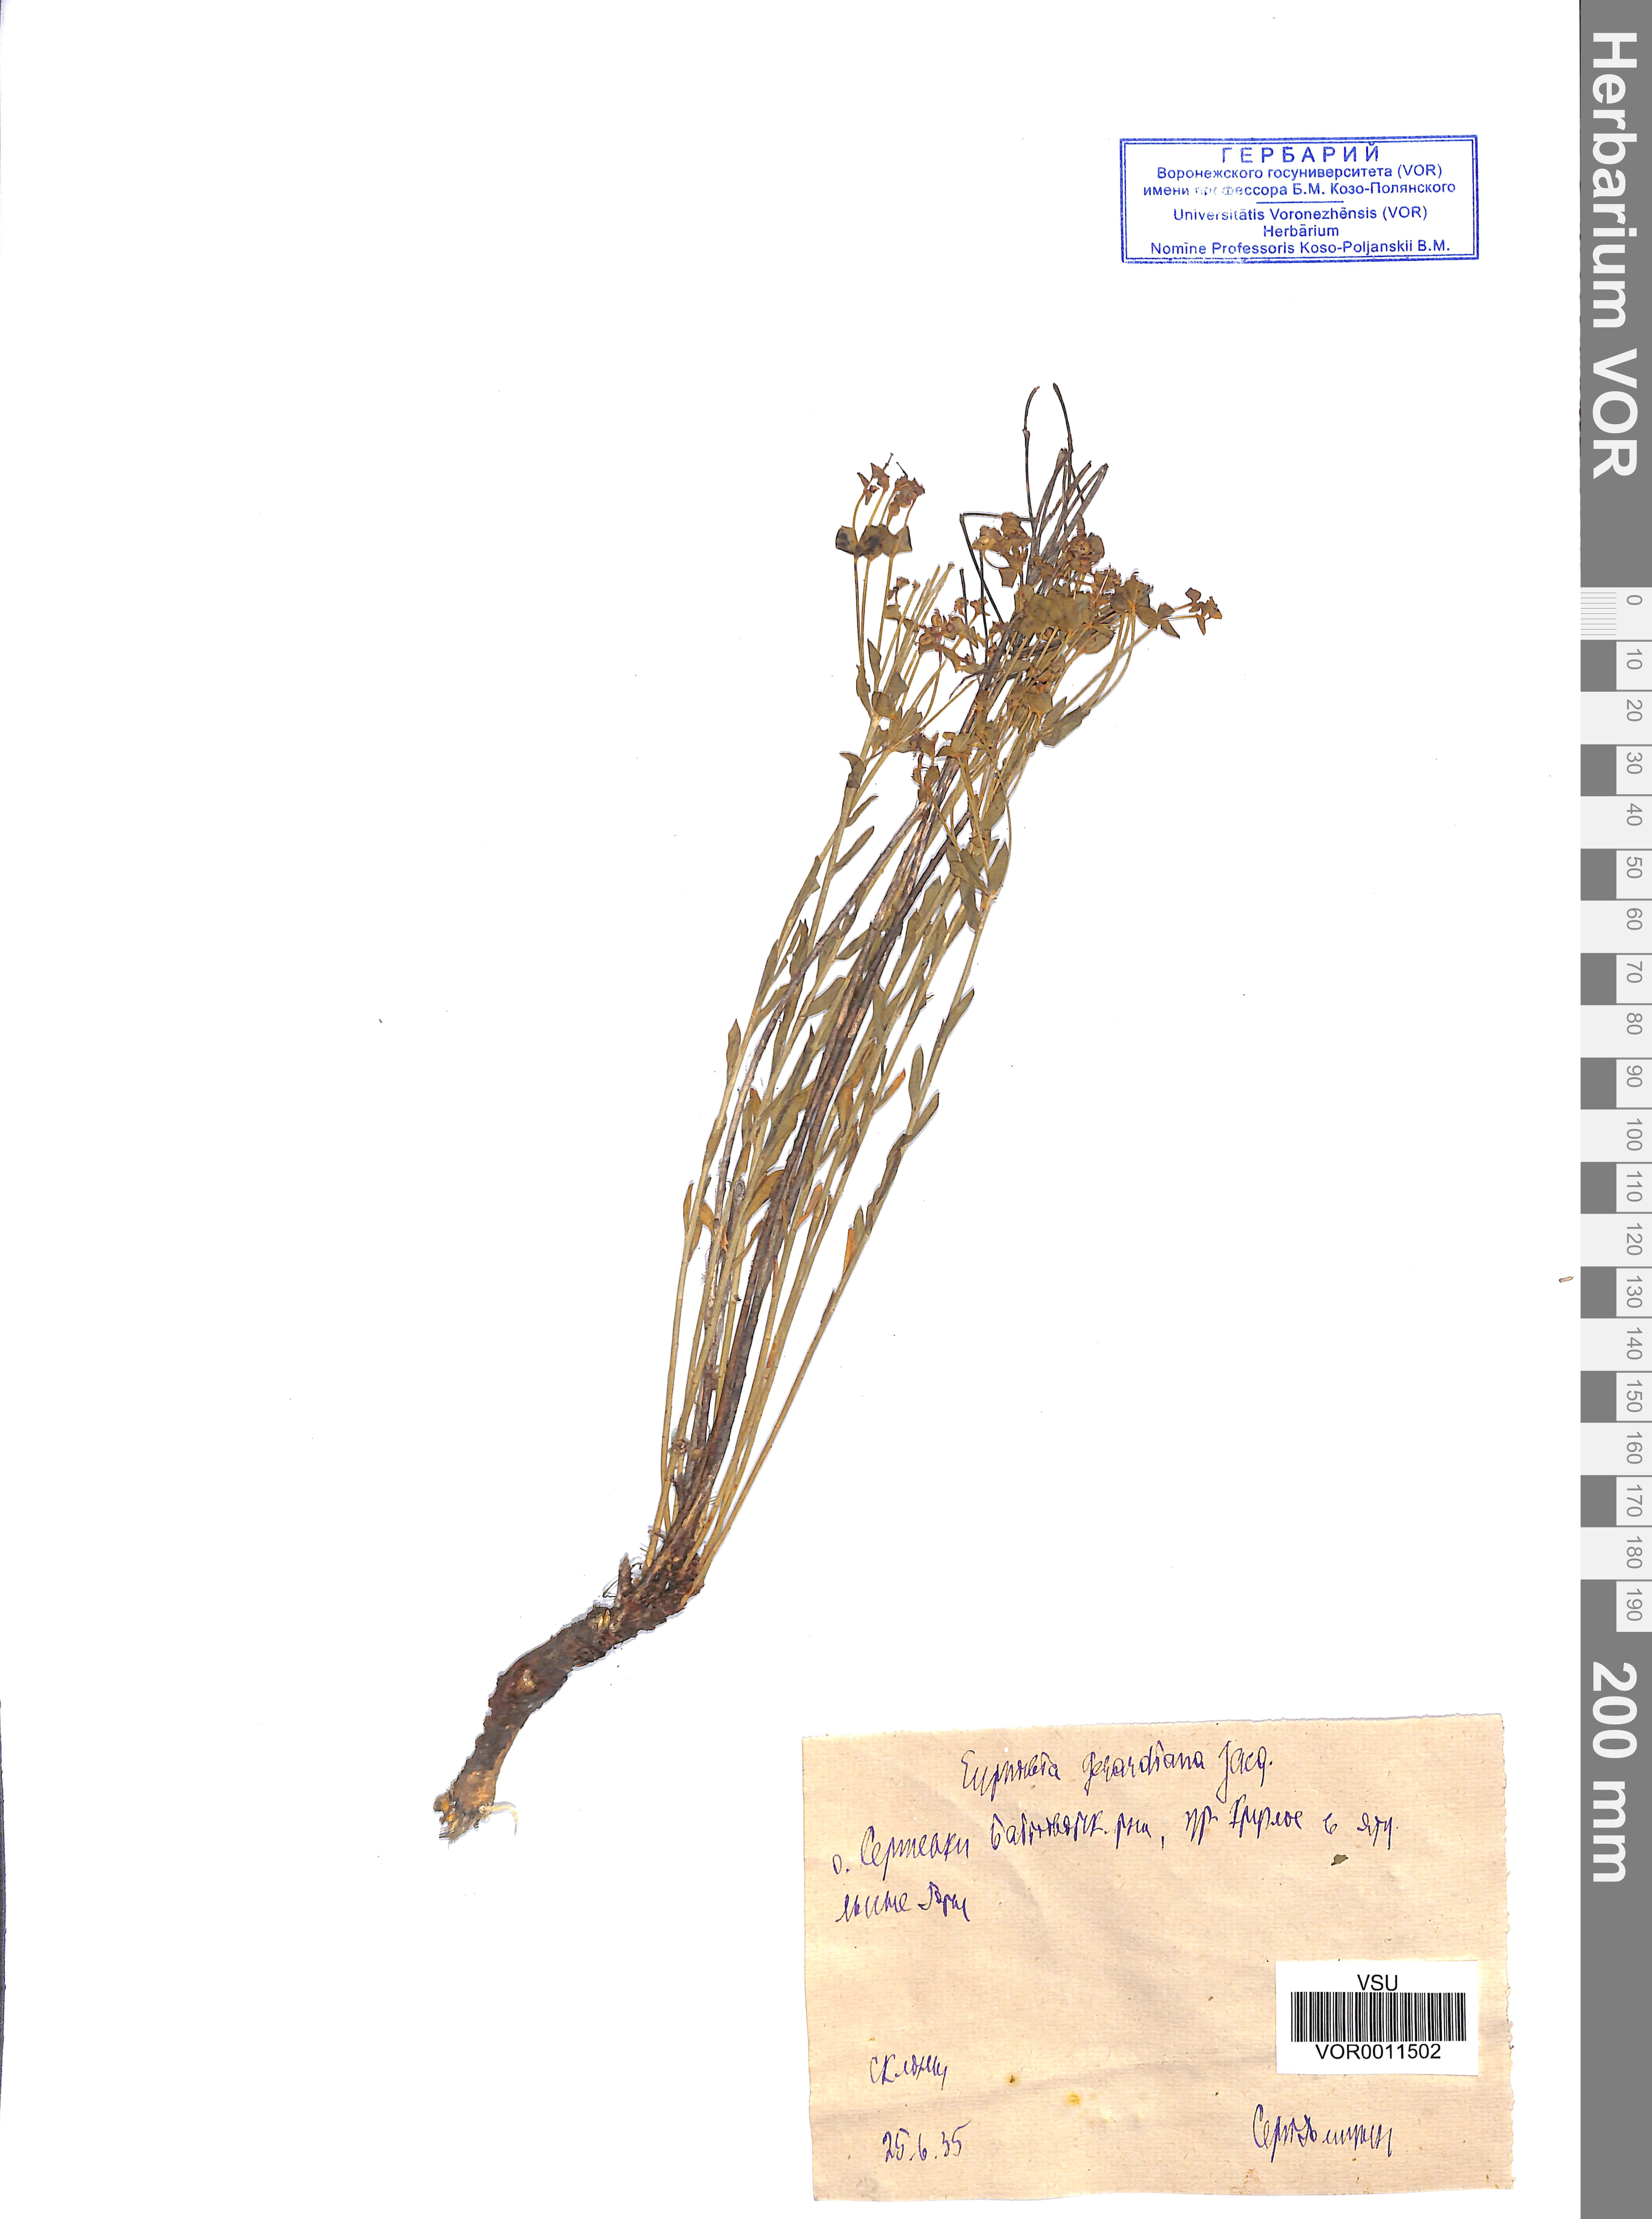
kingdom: Plantae
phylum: Tracheophyta
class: Magnoliopsida
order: Malpighiales
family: Euphorbiaceae
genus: Euphorbia
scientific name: Euphorbia seguieriana
